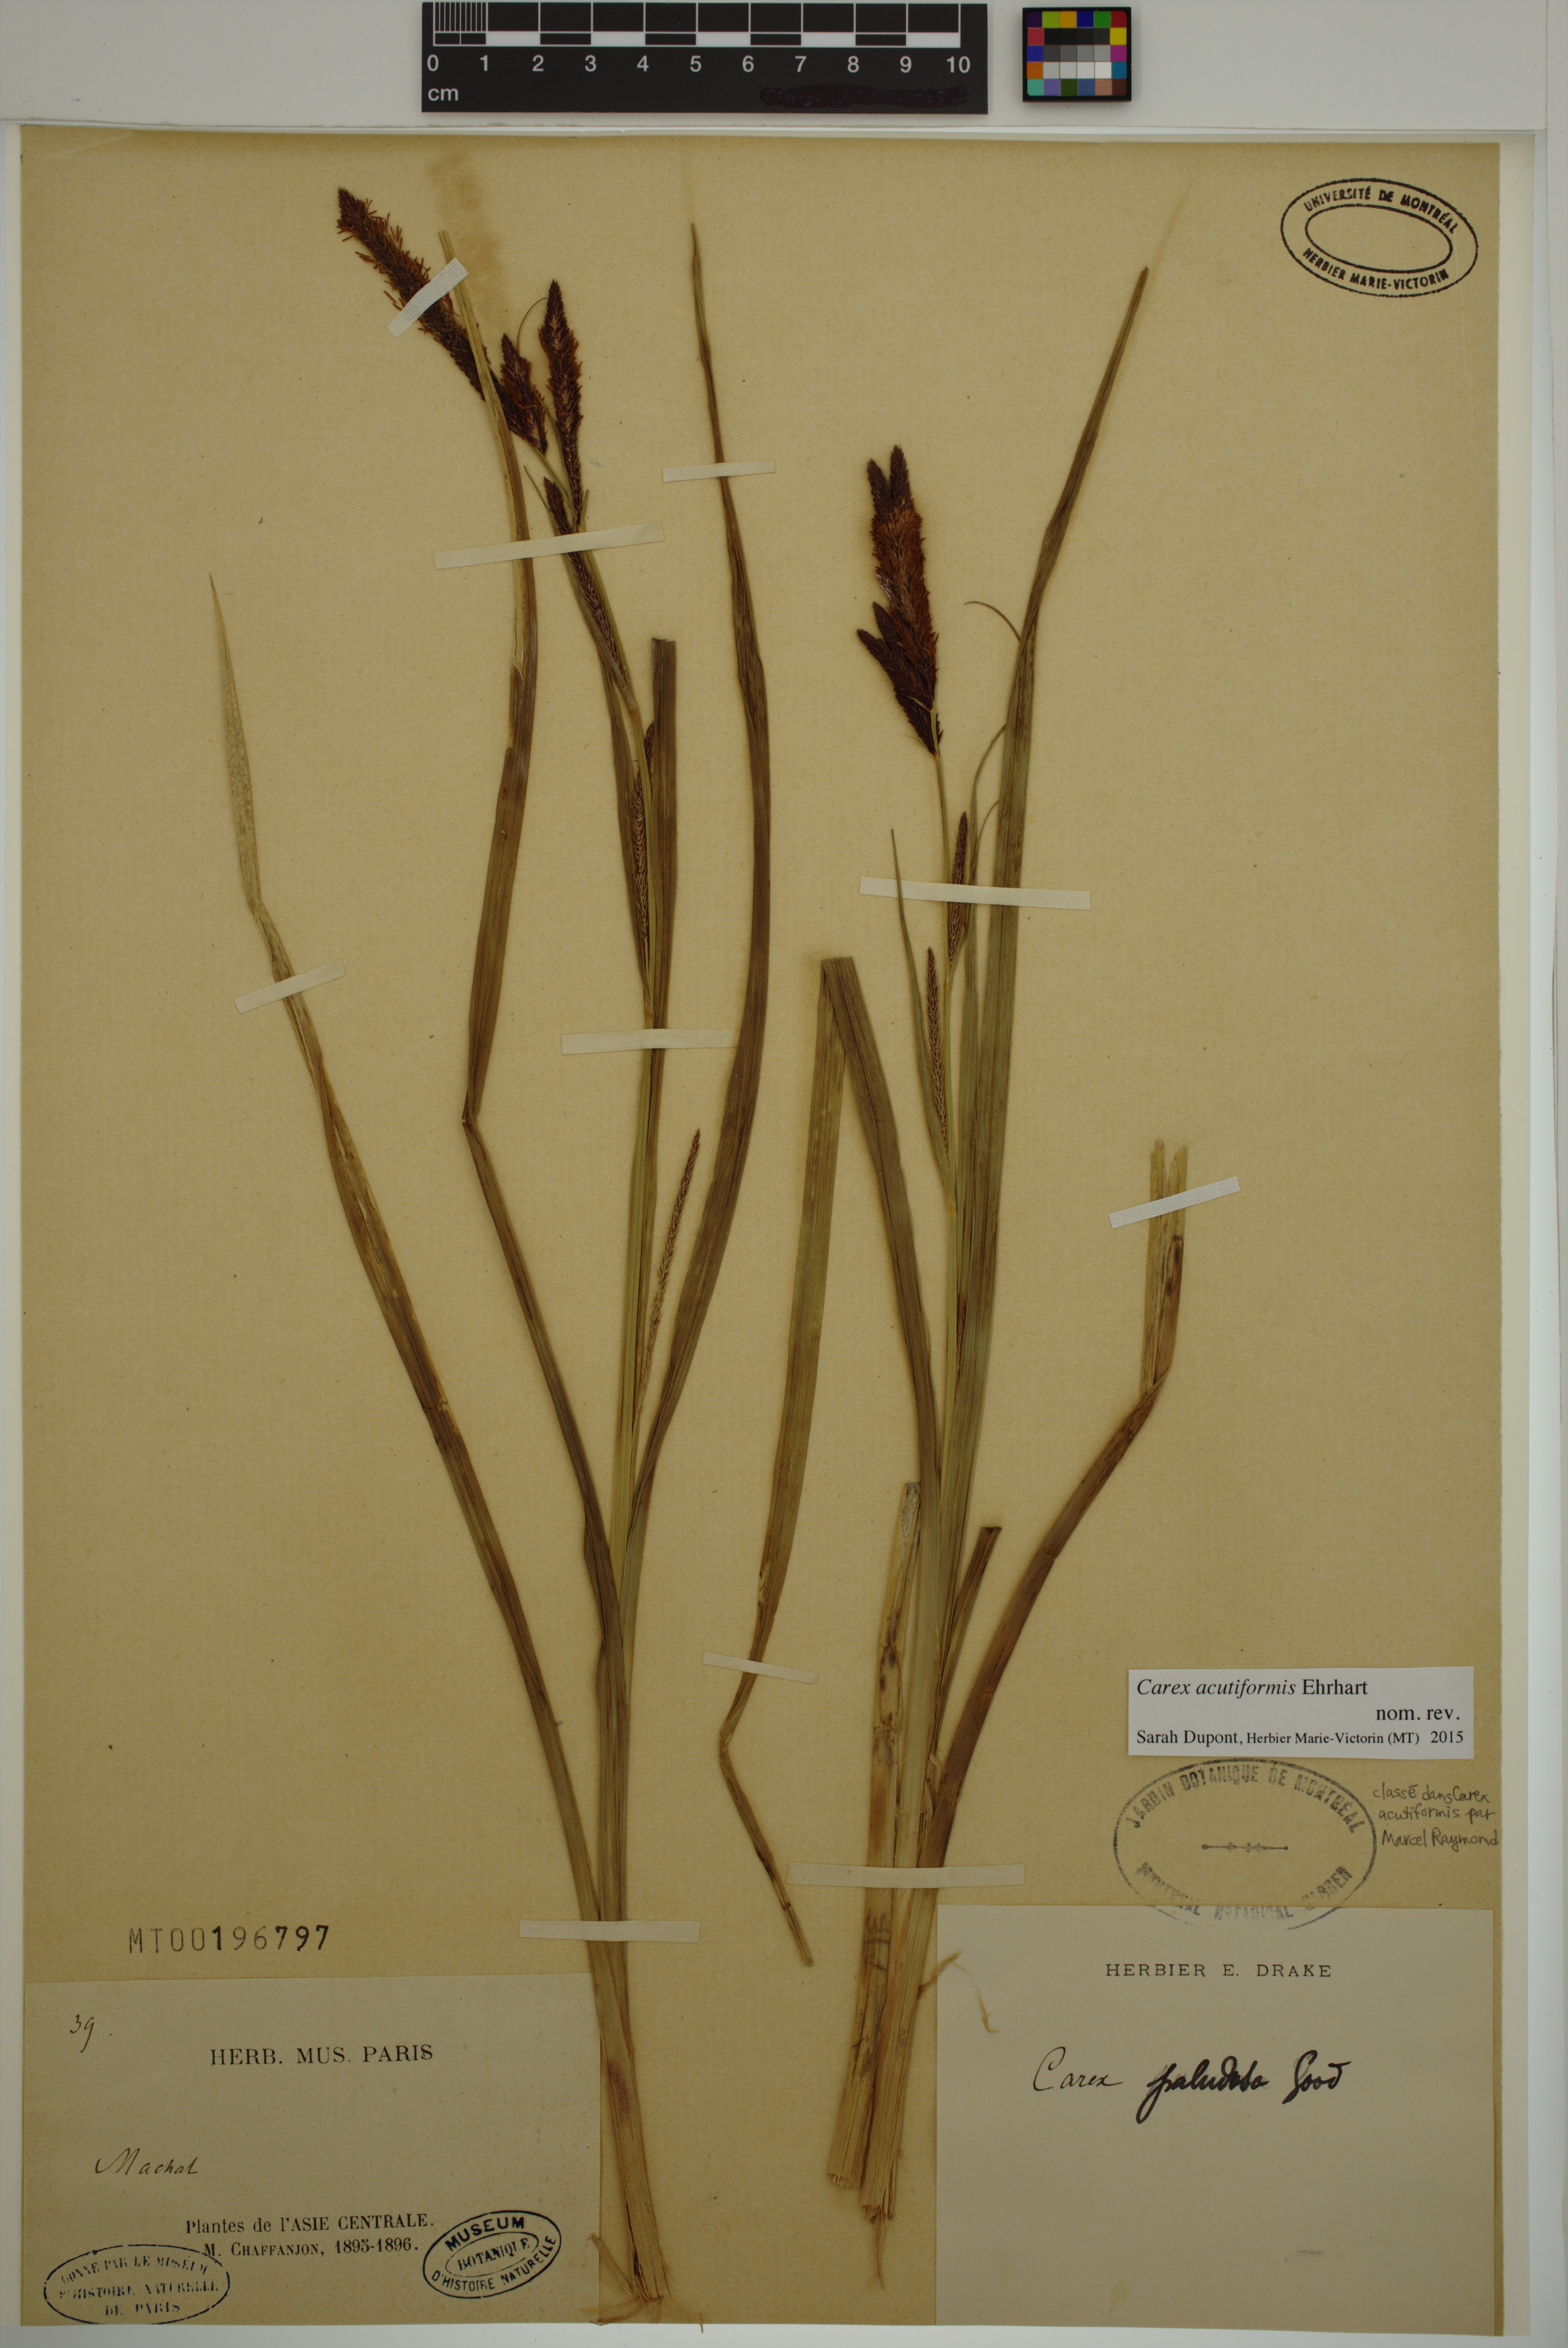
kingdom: Plantae
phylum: Tracheophyta
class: Liliopsida
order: Poales
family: Cyperaceae
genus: Carex
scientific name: Carex acutiformis
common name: Lesser pond-sedge
